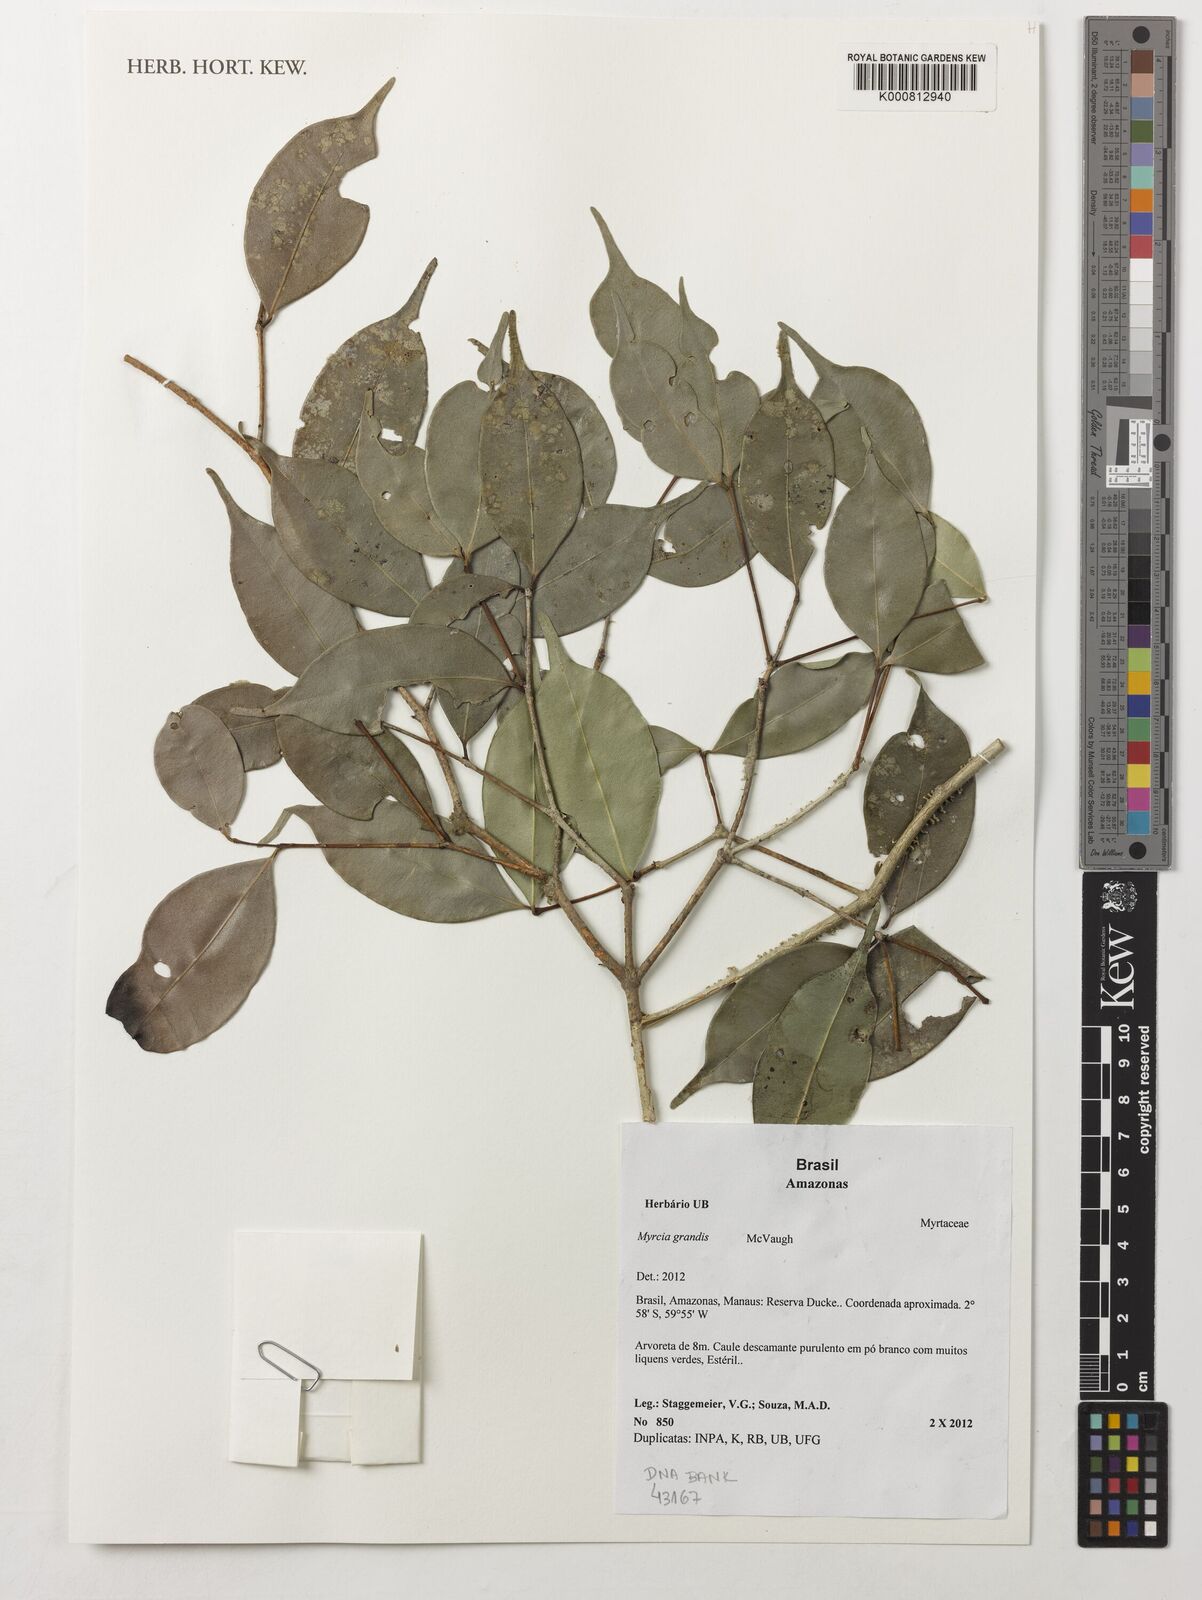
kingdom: Plantae
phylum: Tracheophyta
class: Magnoliopsida
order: Myrtales
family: Myrtaceae
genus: Myrcia
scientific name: Myrcia grandis
